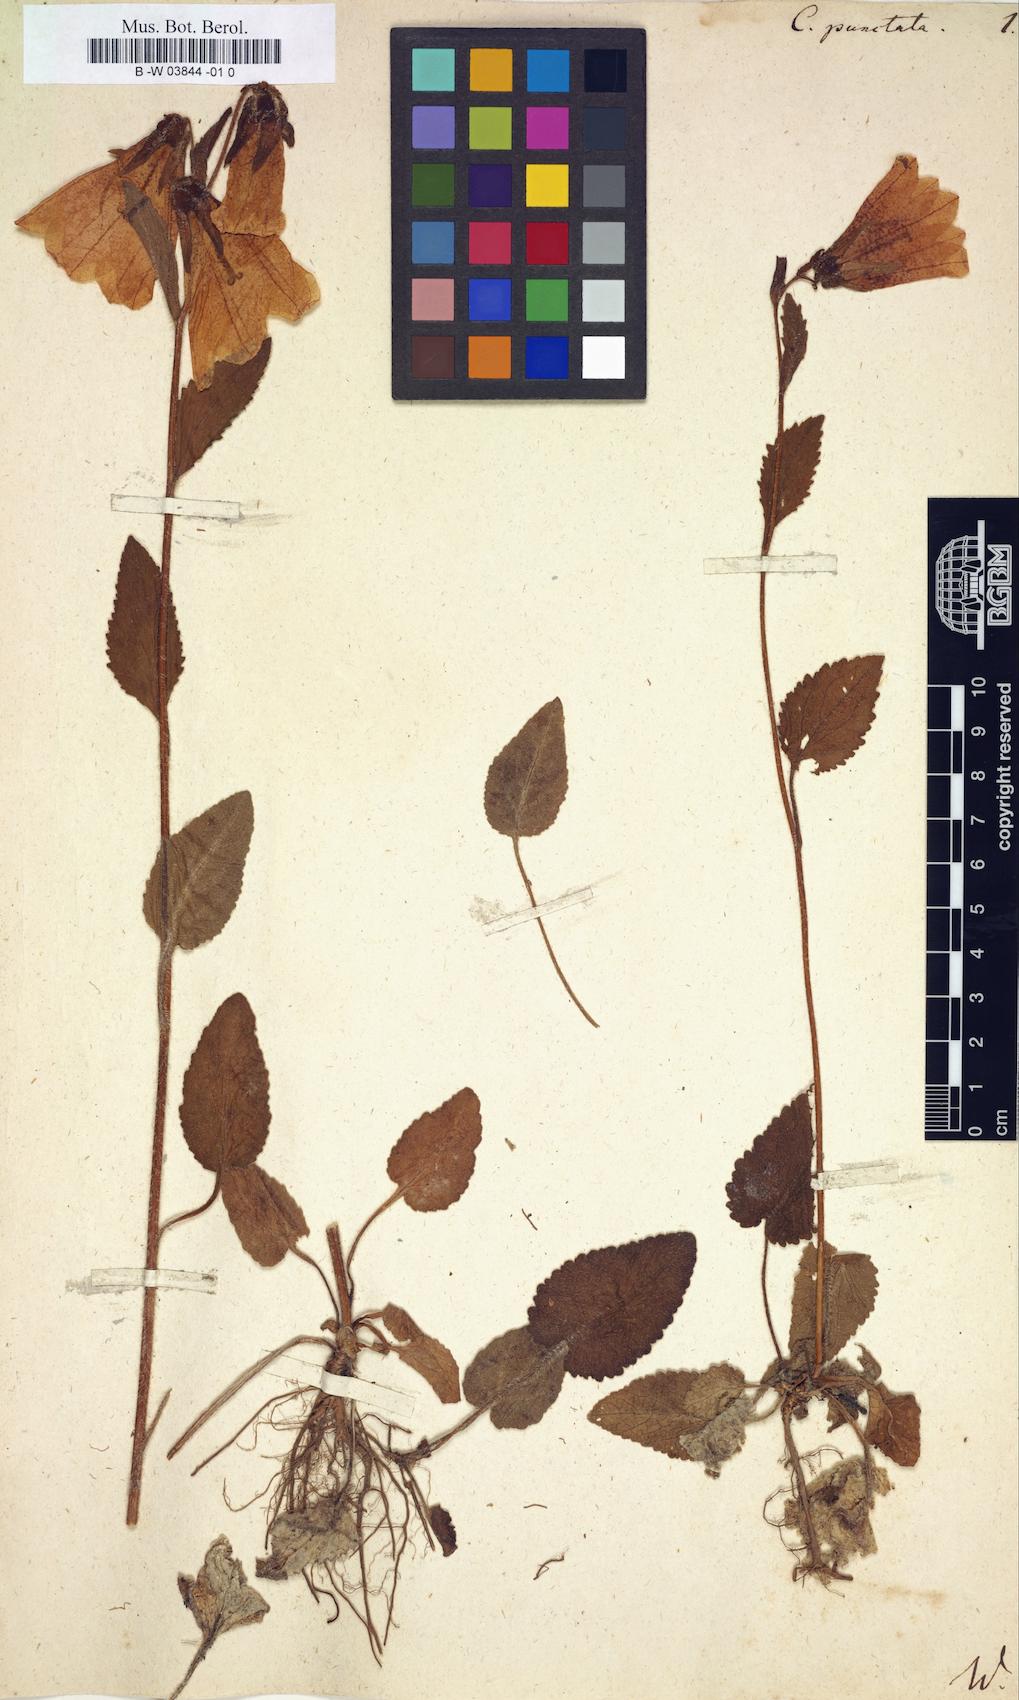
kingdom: Plantae
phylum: Tracheophyta
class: Magnoliopsida
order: Asterales
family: Campanulaceae
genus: Campanula
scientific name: Campanula punctata
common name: Spotted bellflower
